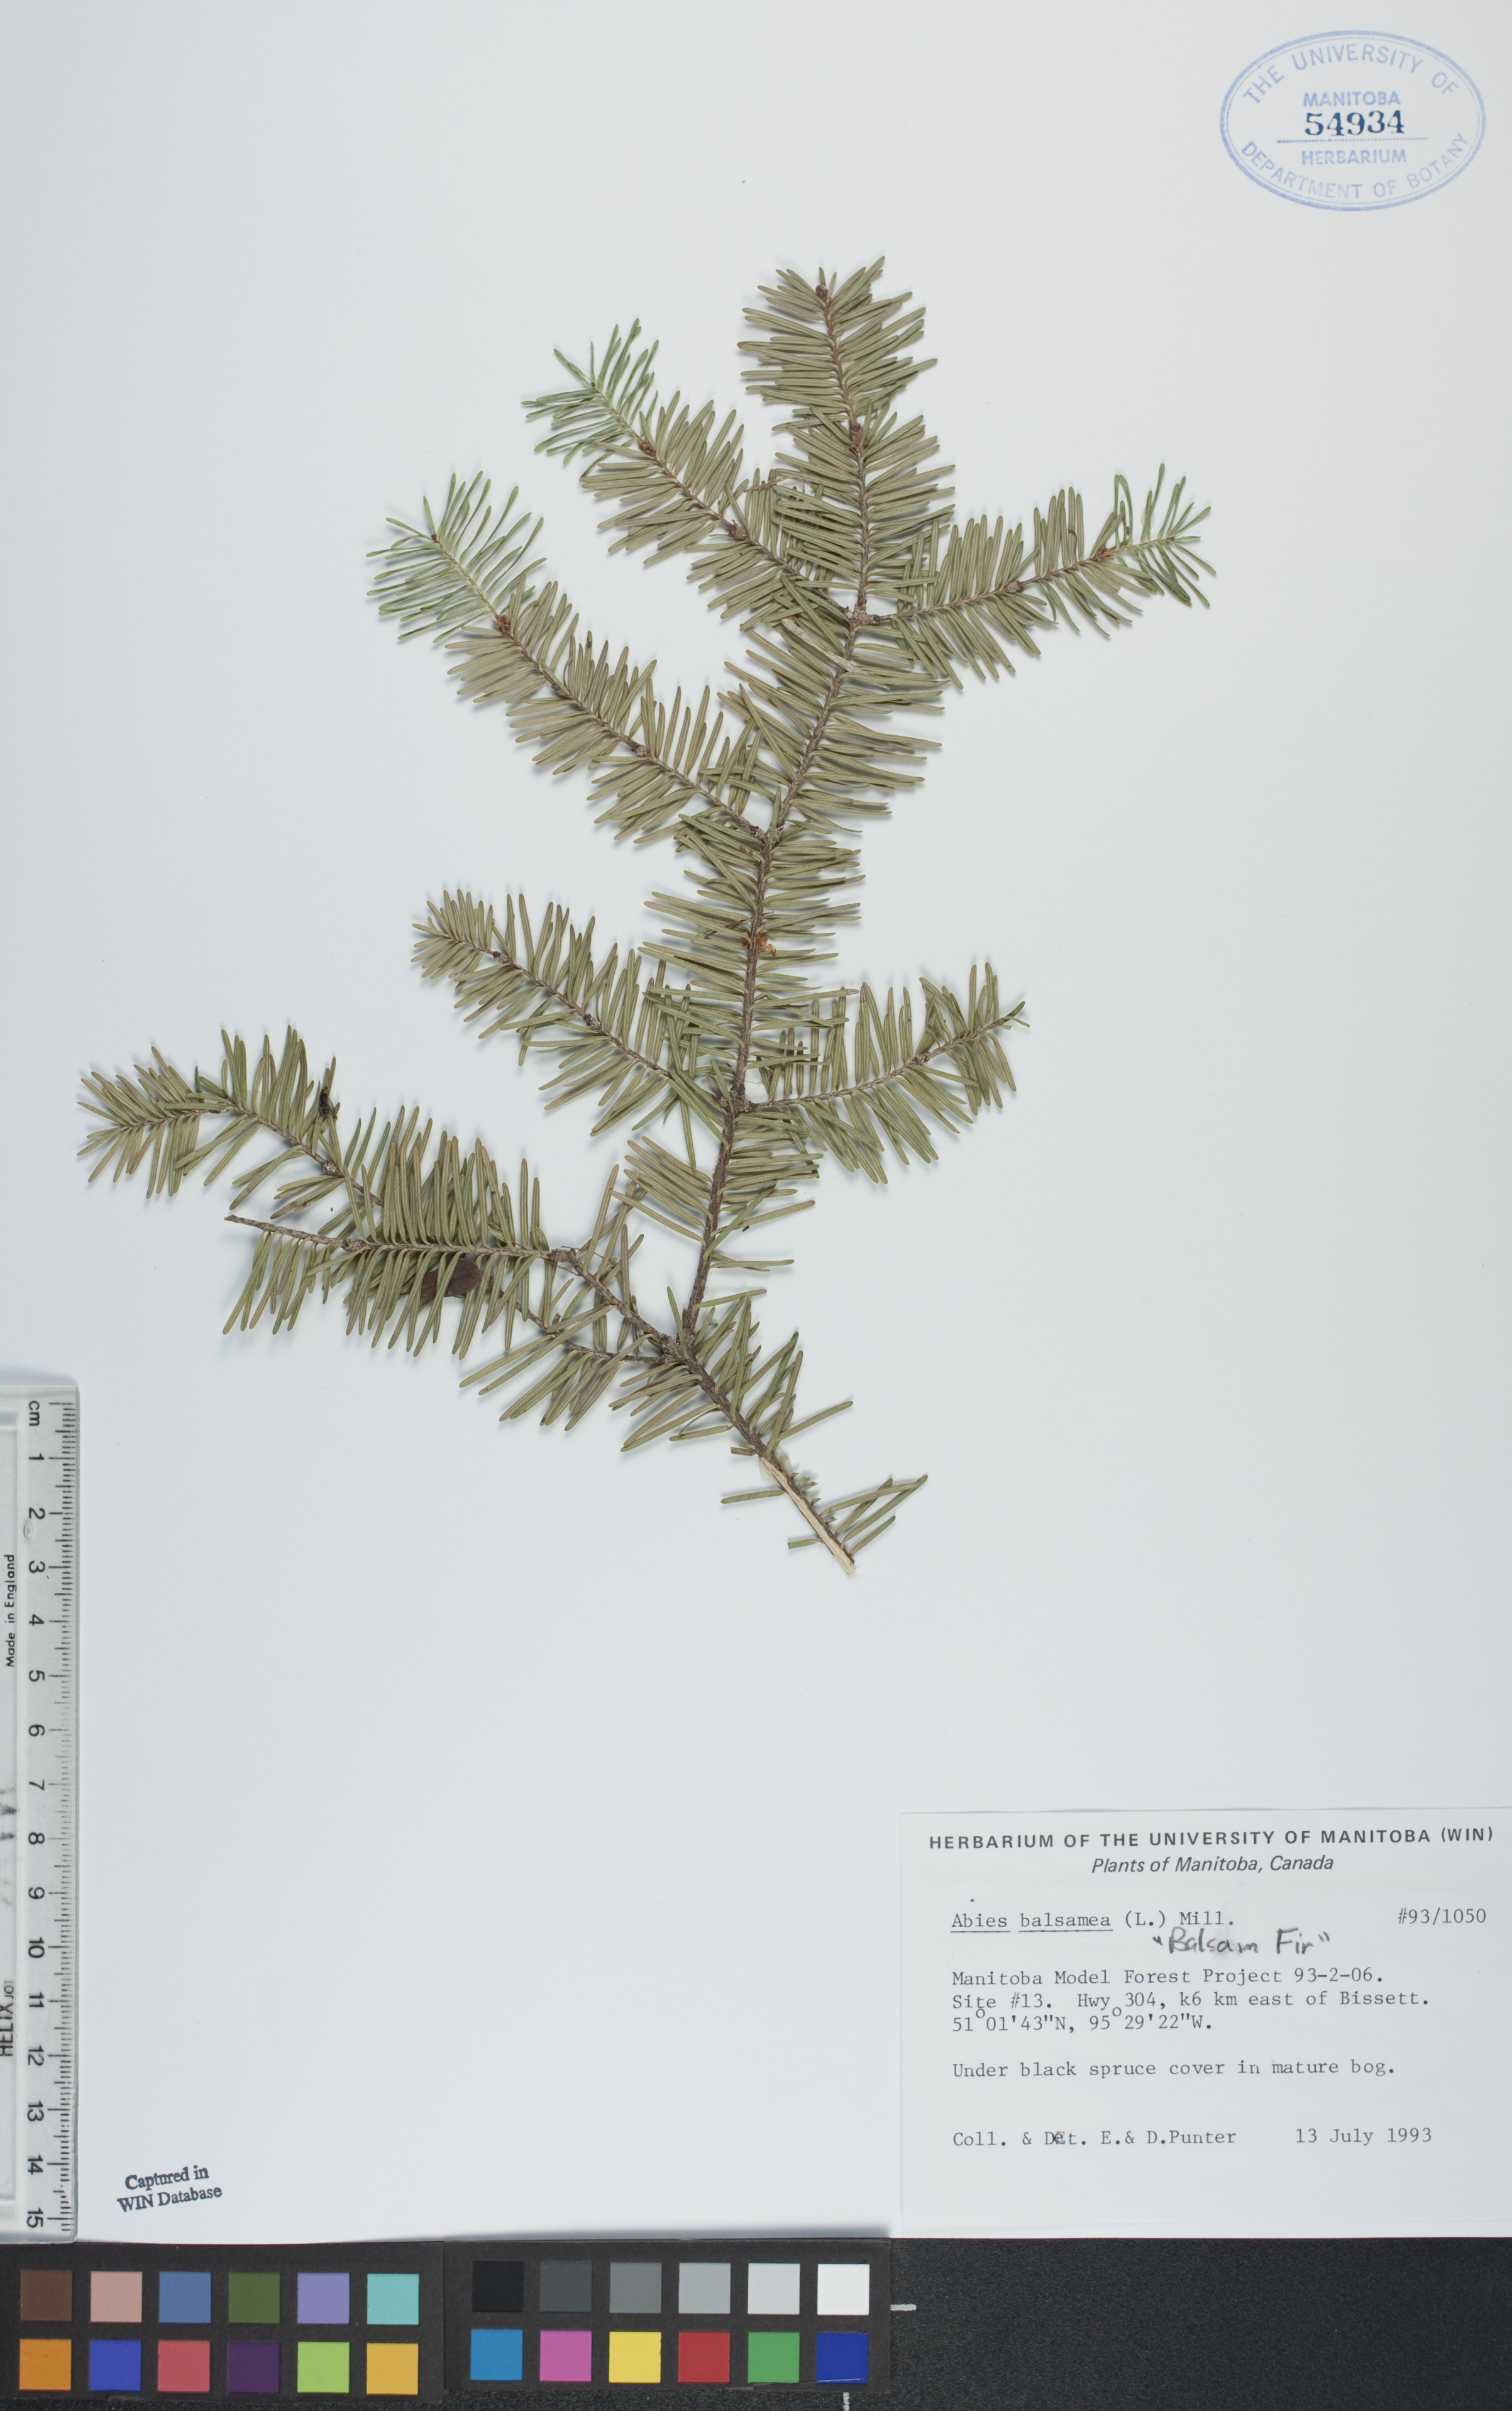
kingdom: Plantae
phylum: Tracheophyta
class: Pinopsida
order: Pinales
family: Pinaceae
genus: Abies
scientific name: Abies balsamea
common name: Balsam fir
